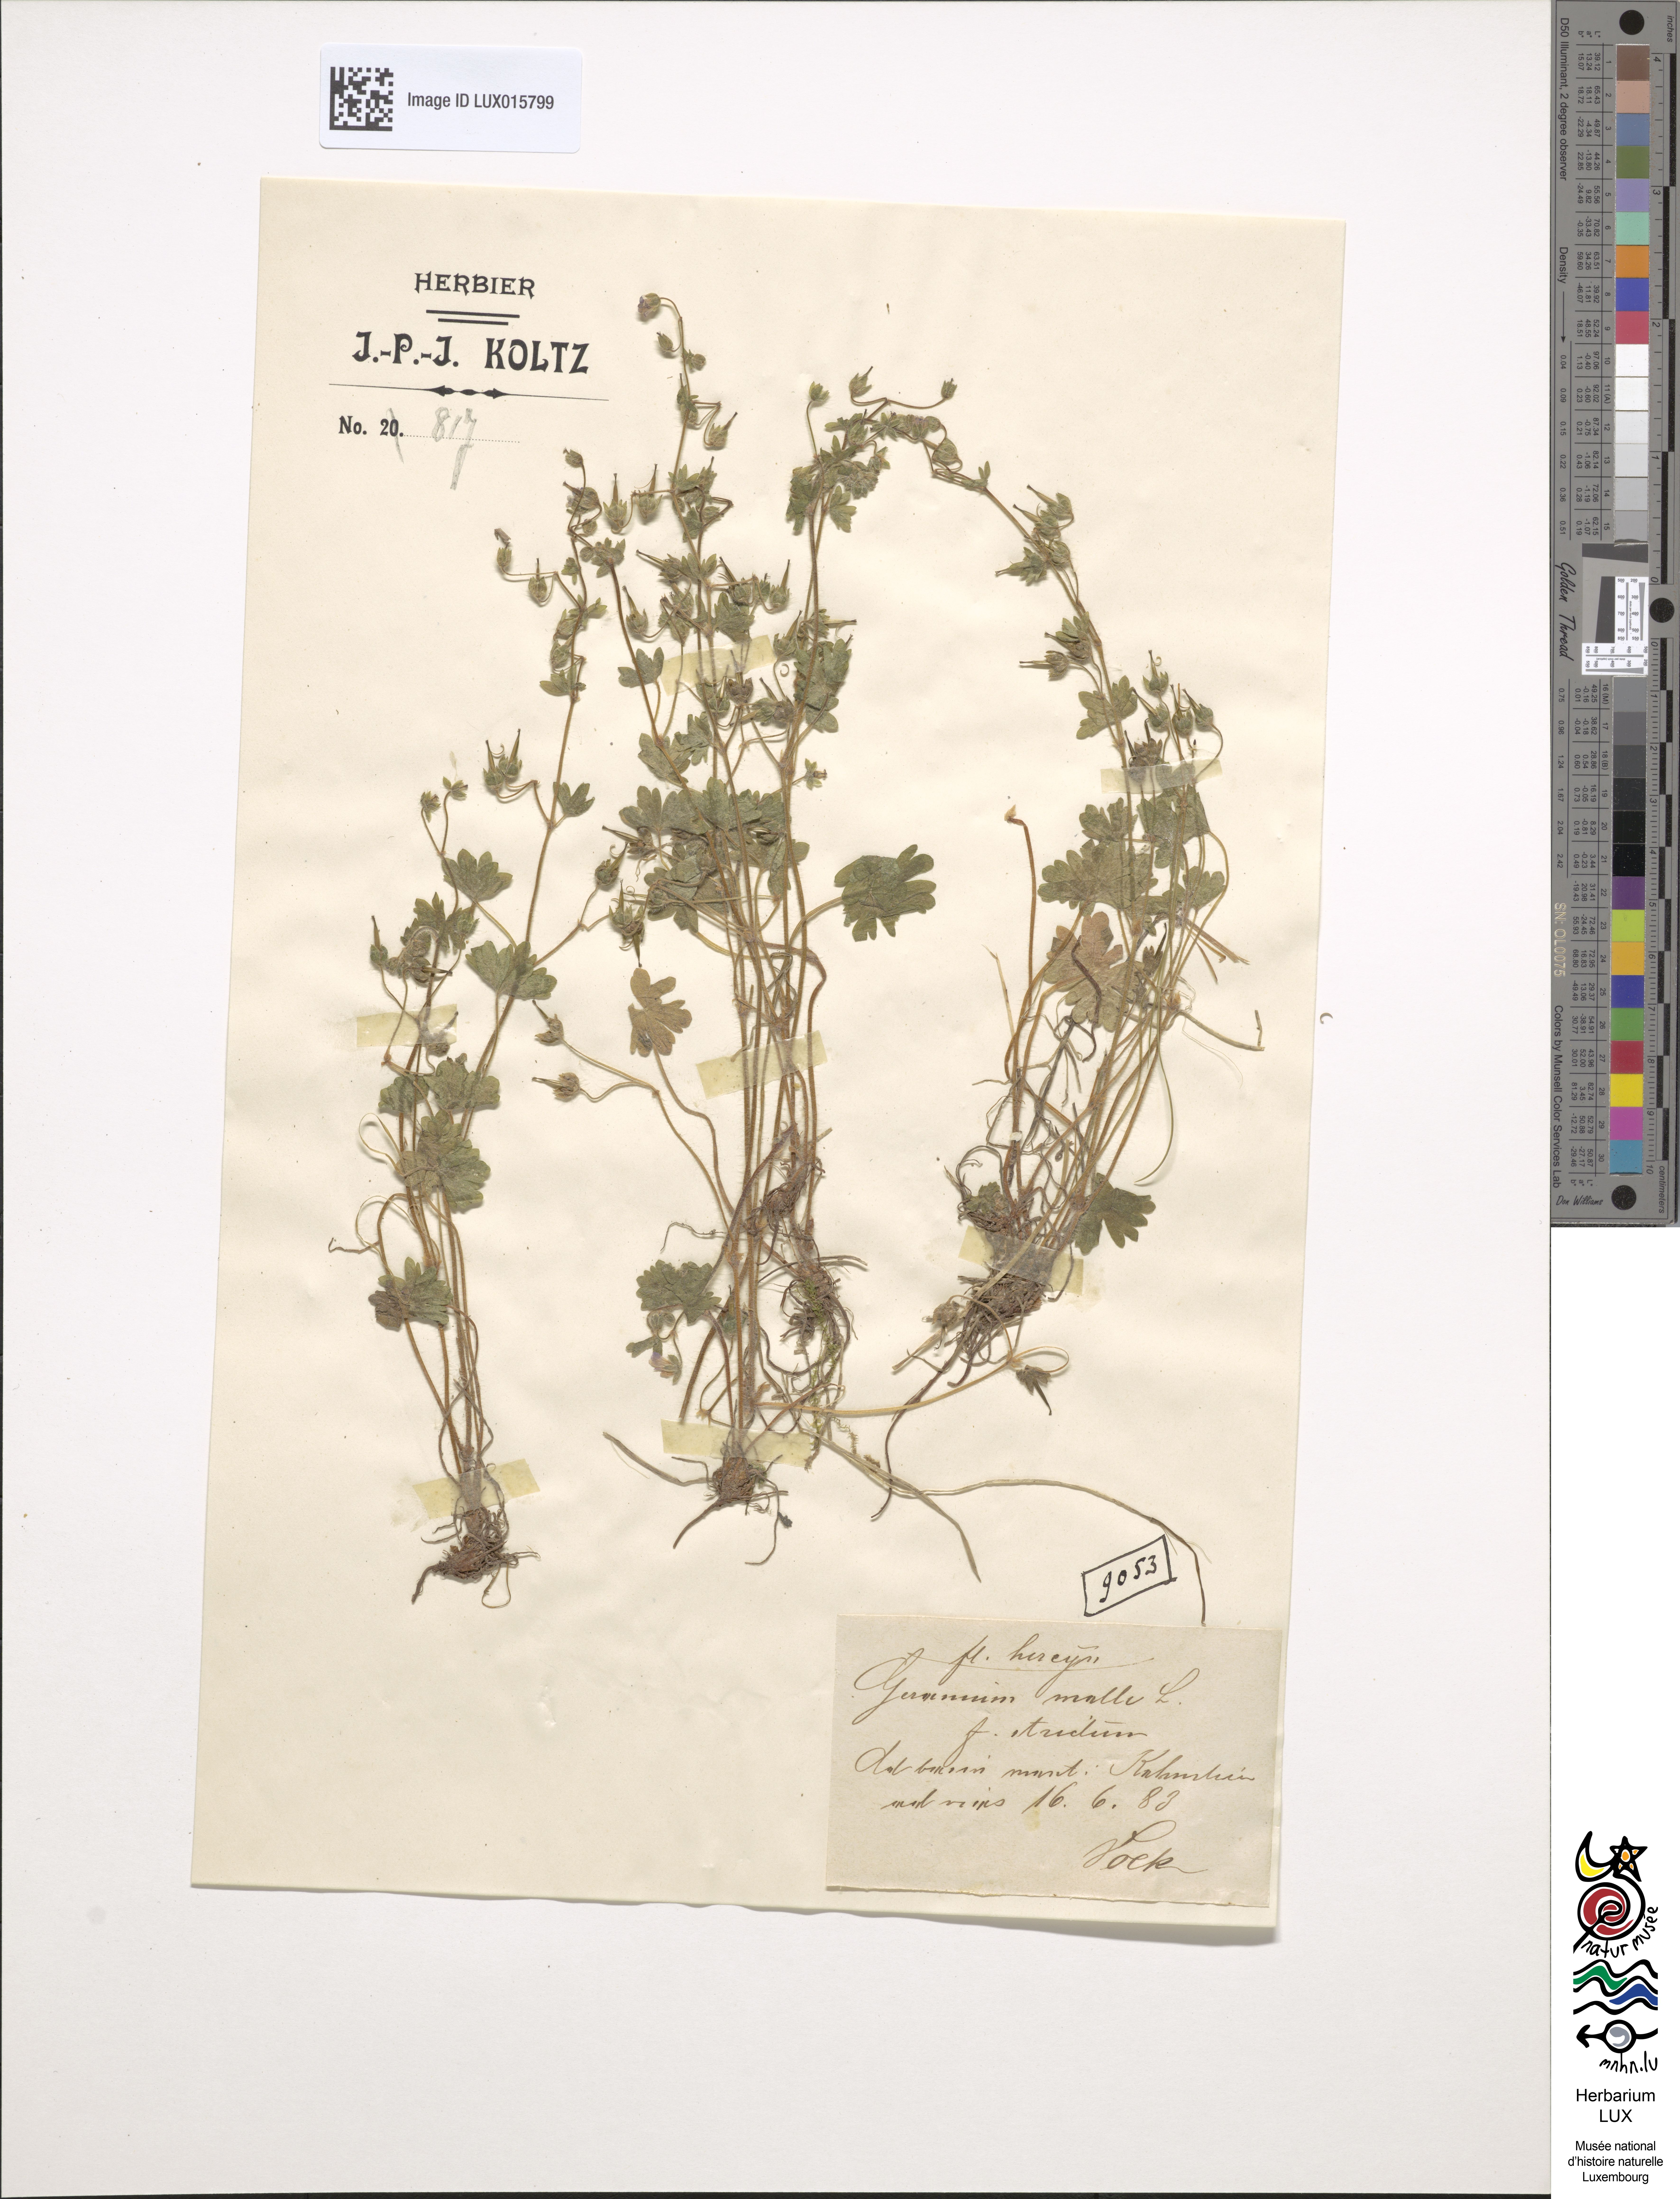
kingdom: Plantae
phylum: Tracheophyta
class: Magnoliopsida
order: Geraniales
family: Geraniaceae
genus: Geranium
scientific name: Geranium molle
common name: Dove's-foot crane's-bill
